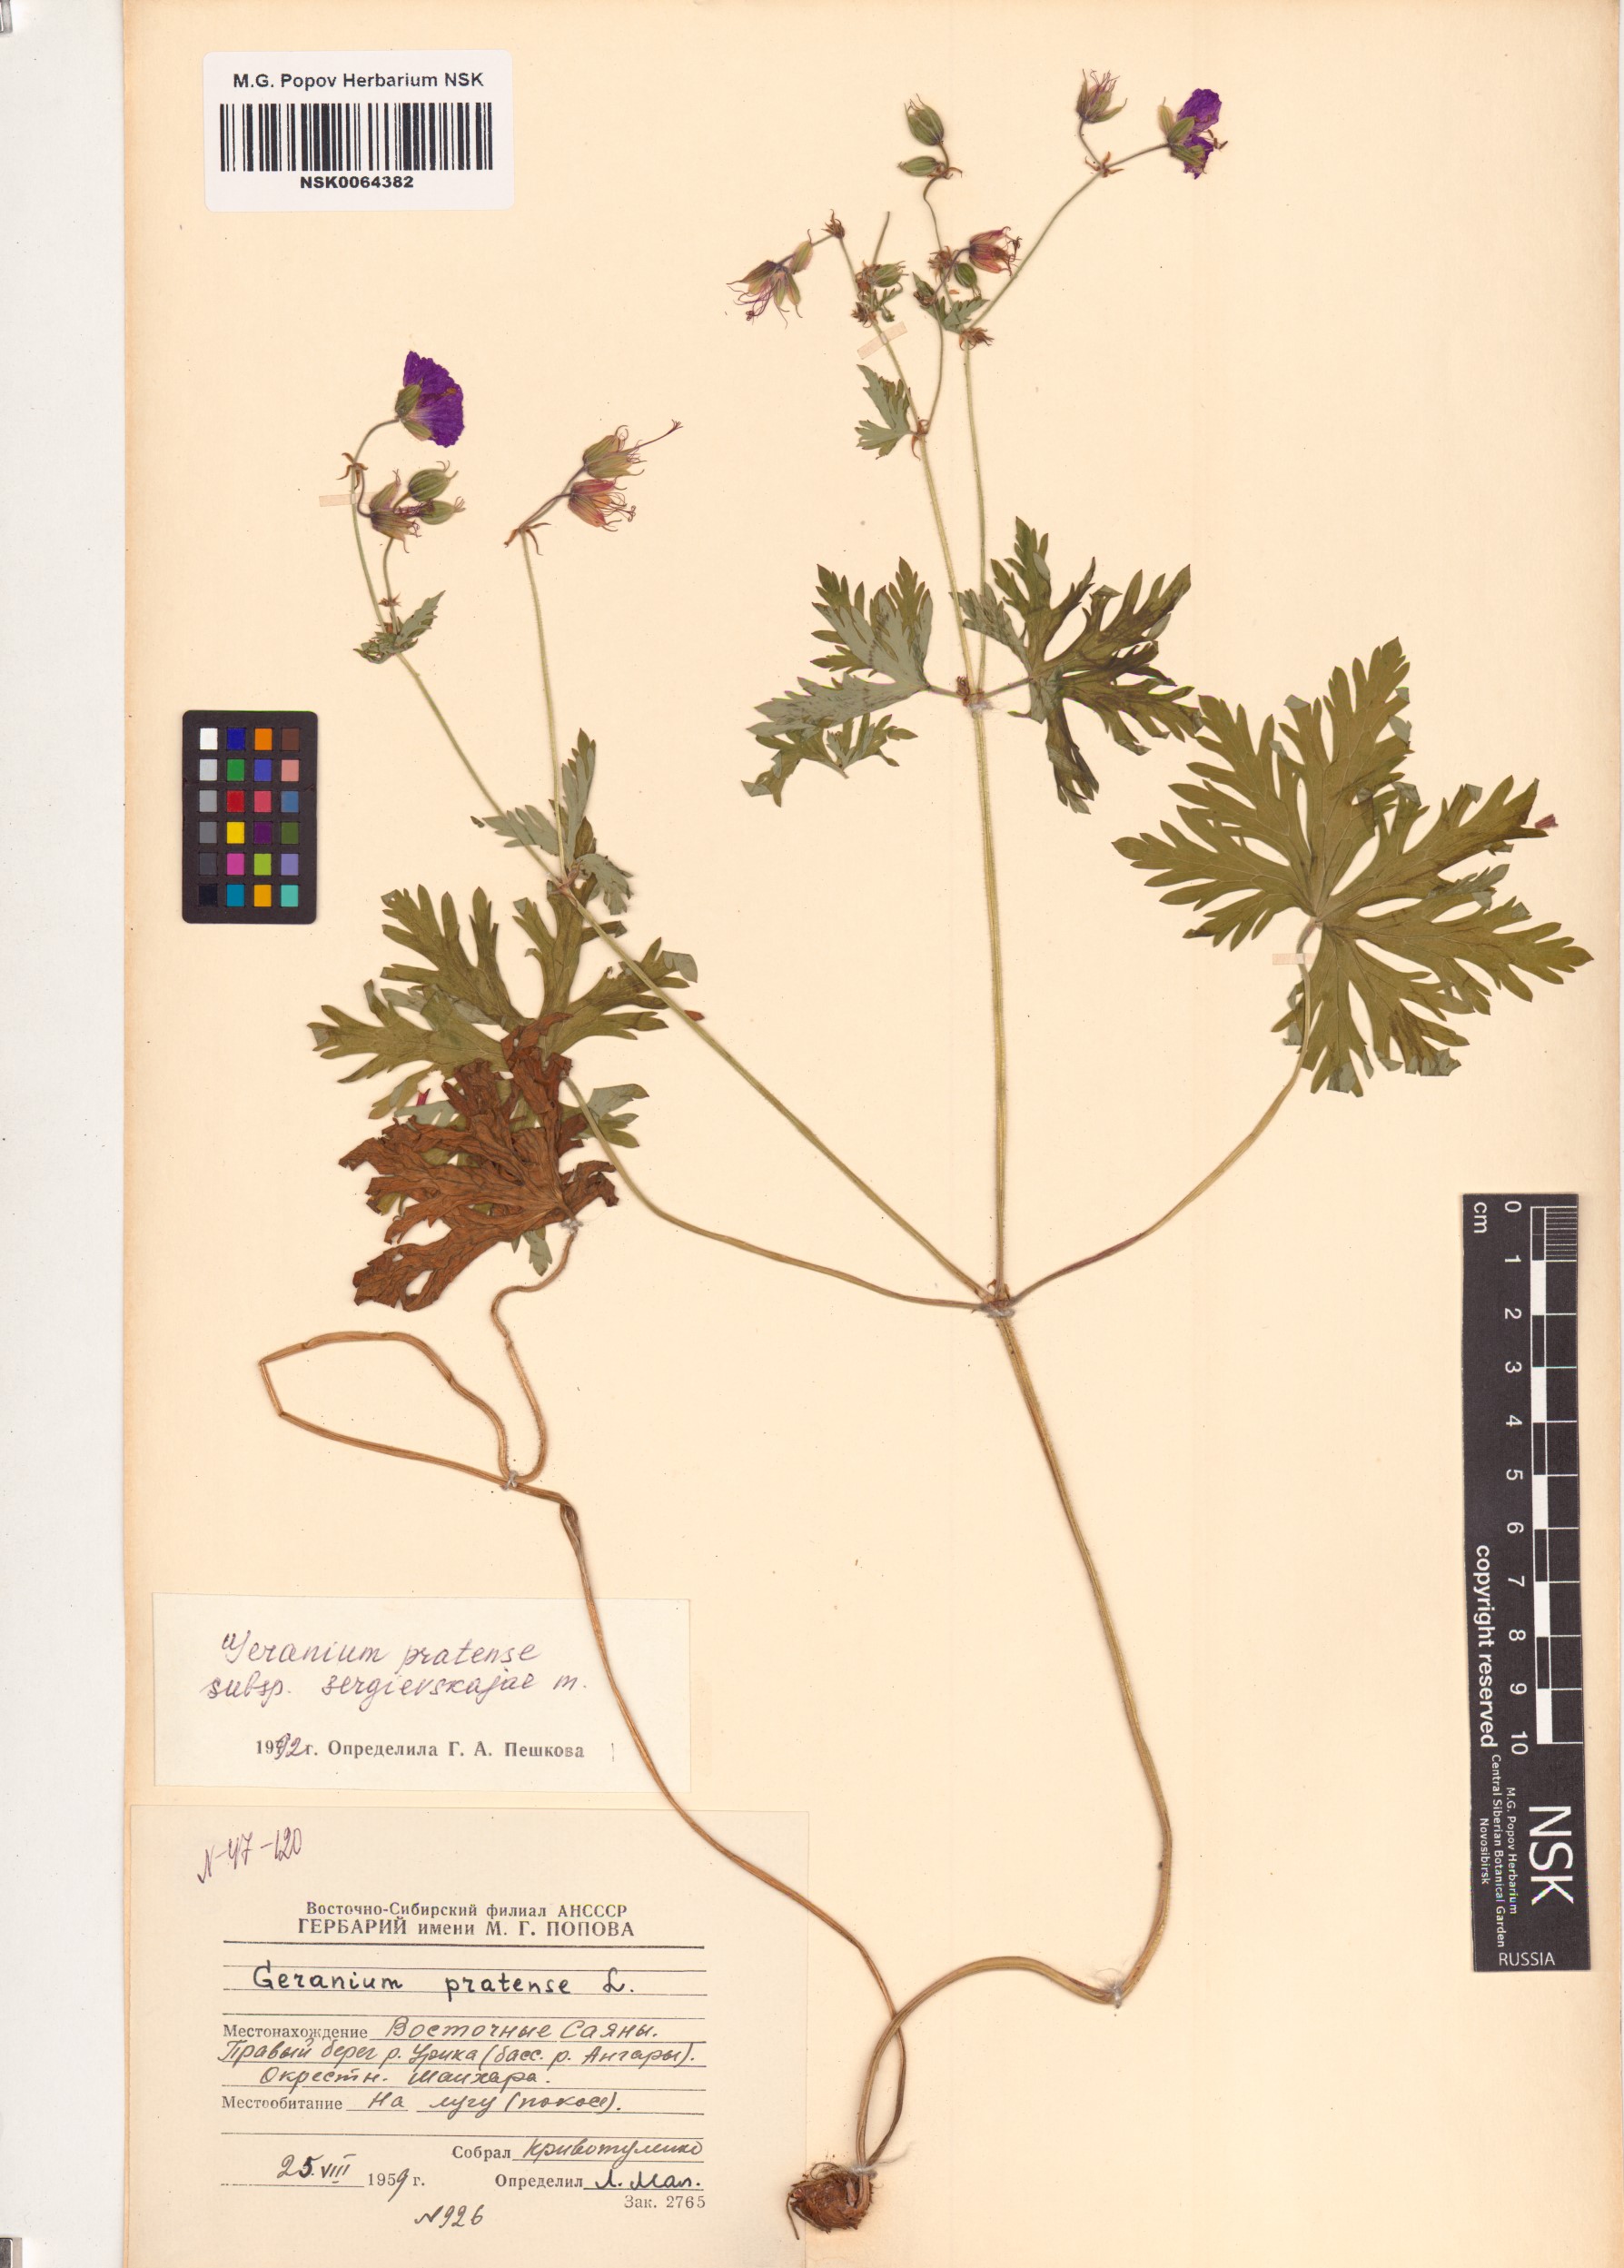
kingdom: Plantae
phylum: Tracheophyta
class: Magnoliopsida
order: Geraniales
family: Geraniaceae
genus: Geranium
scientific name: Geranium pratense
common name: Meadow crane's-bill
